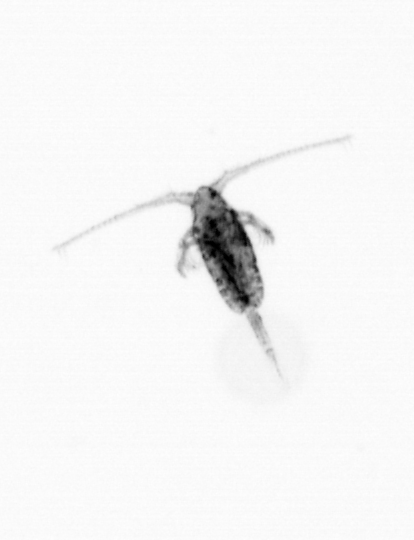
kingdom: Animalia
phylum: Arthropoda
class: Copepoda
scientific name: Copepoda
